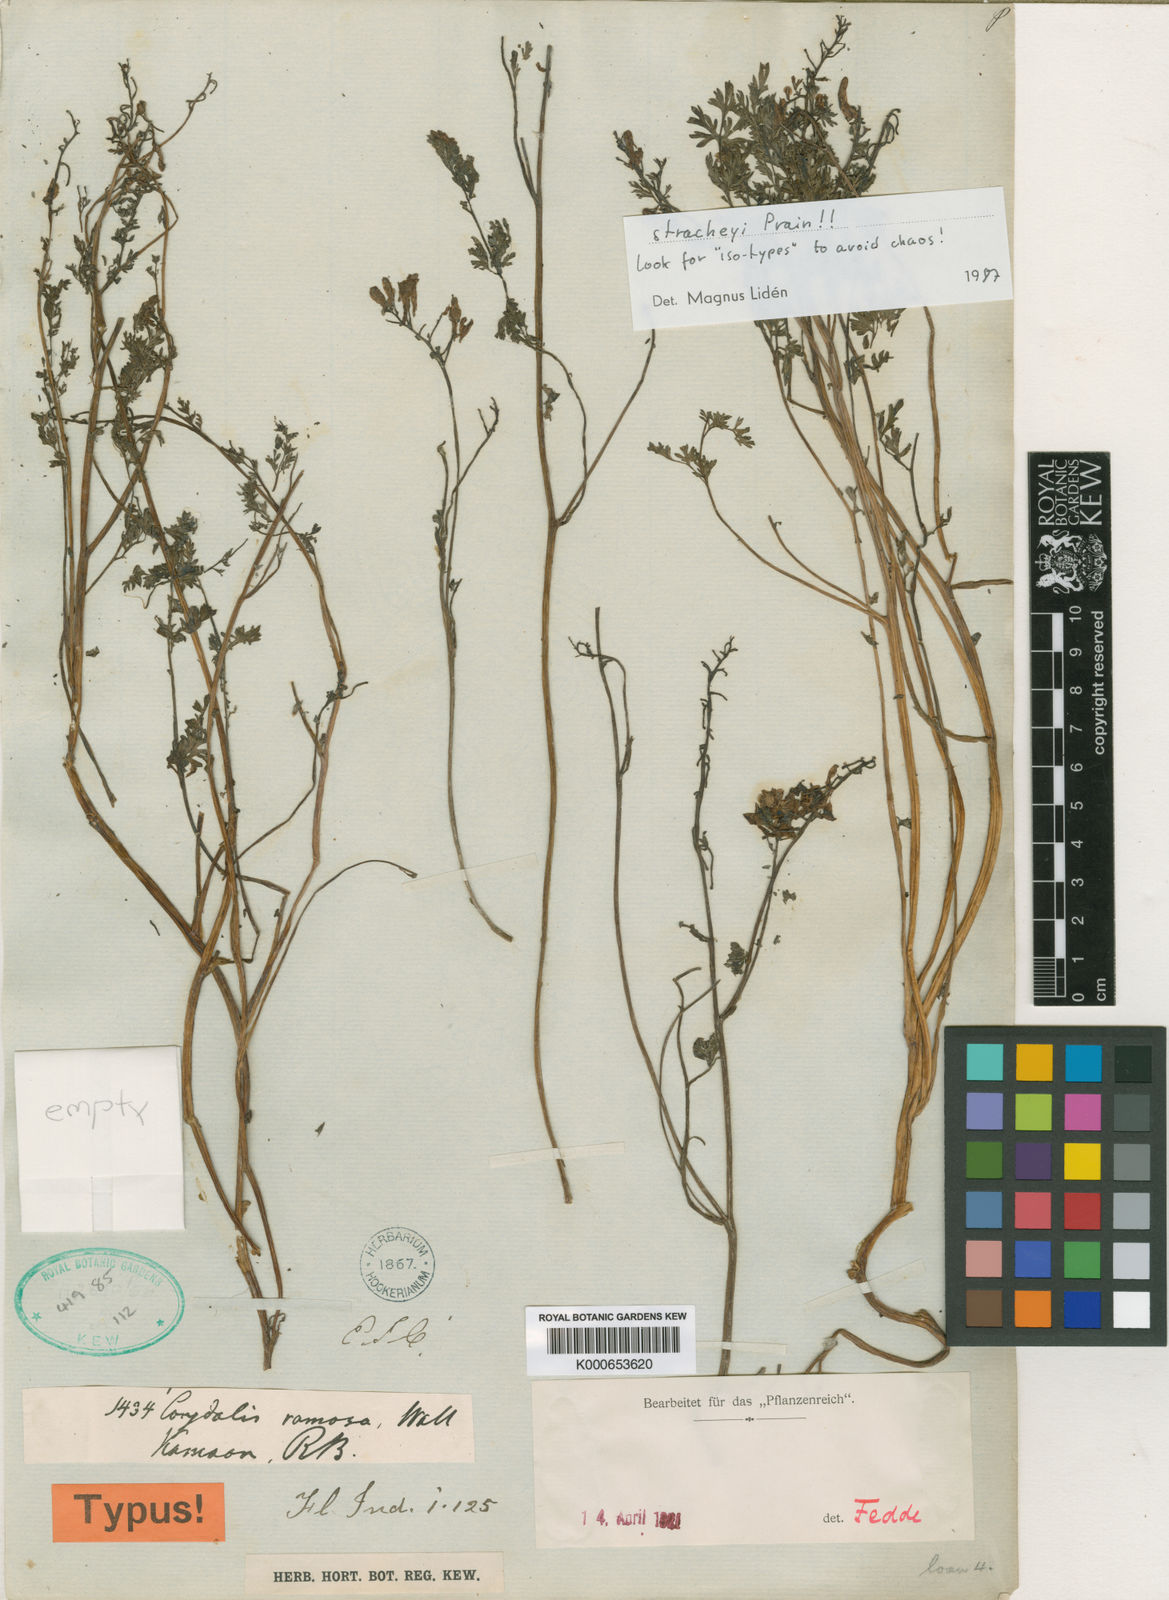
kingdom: Plantae
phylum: Tracheophyta
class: Magnoliopsida
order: Ranunculales
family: Papaveraceae
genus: Corydalis
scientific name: Corydalis stracheyi
